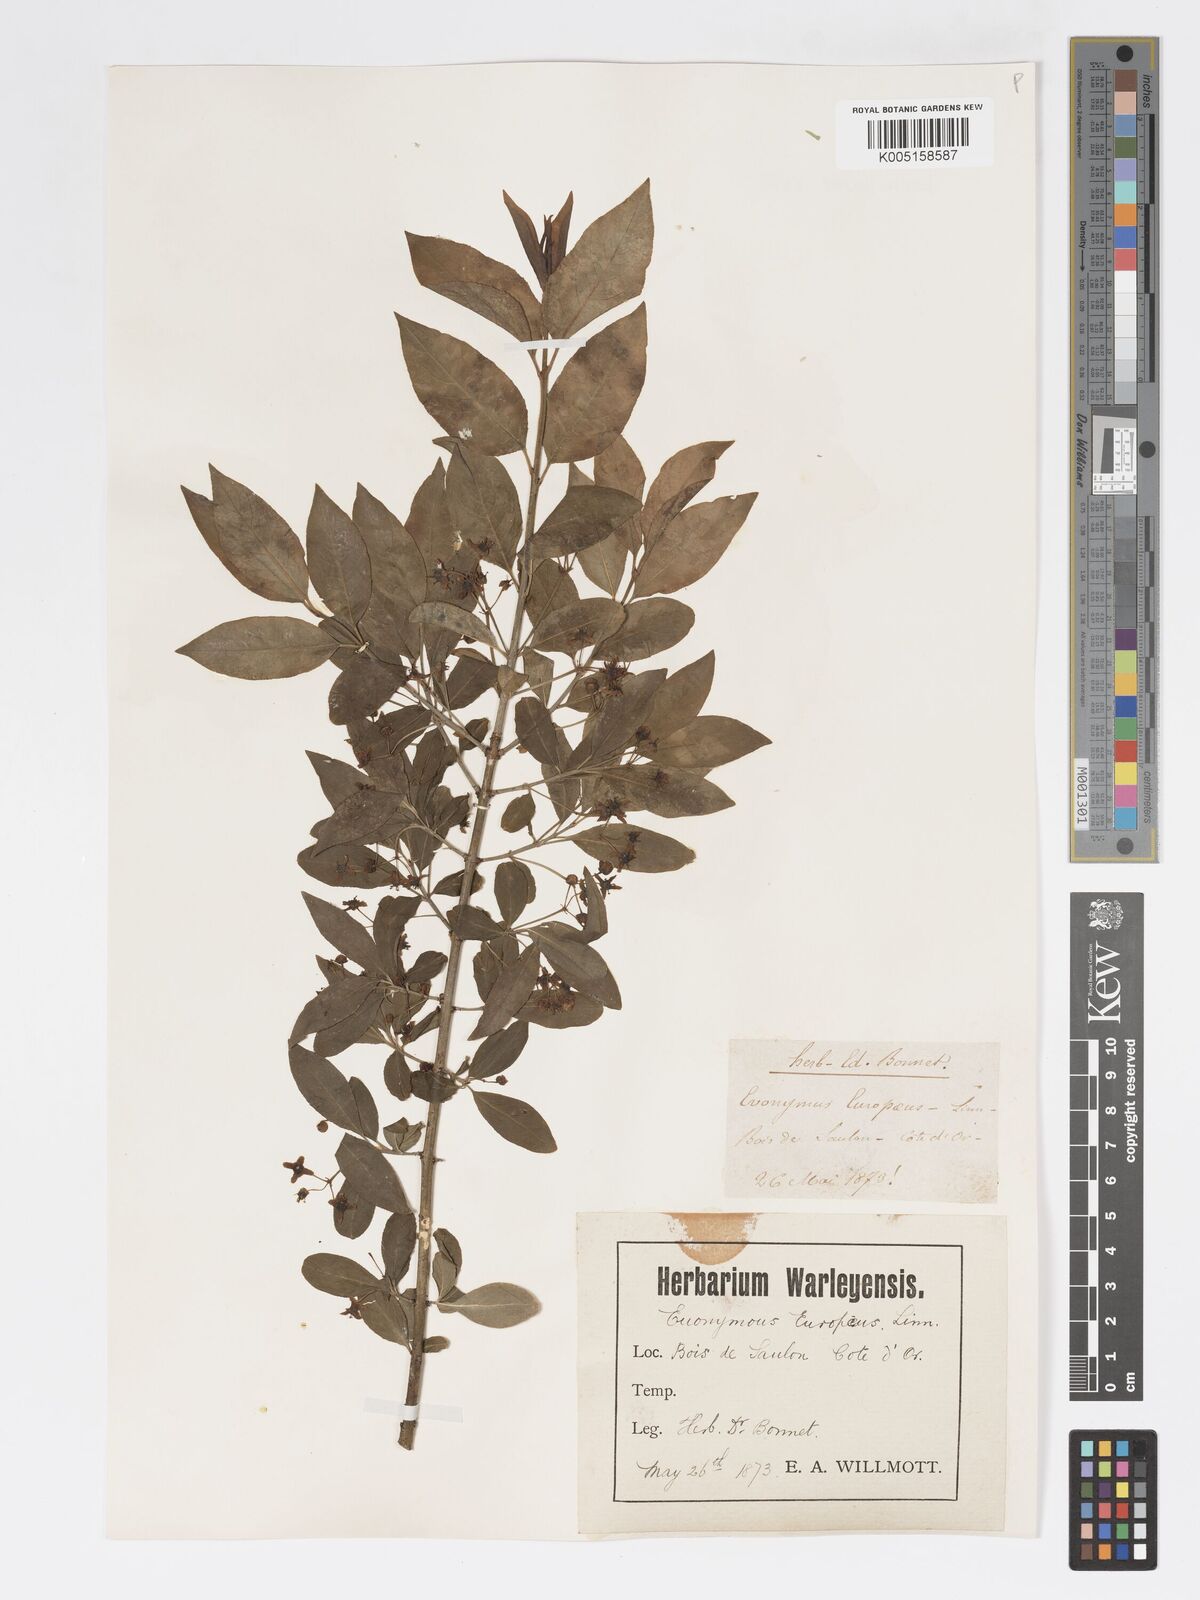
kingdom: Plantae
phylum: Tracheophyta
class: Magnoliopsida
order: Celastrales
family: Celastraceae
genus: Euonymus
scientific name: Euonymus europaeus
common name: Spindle
